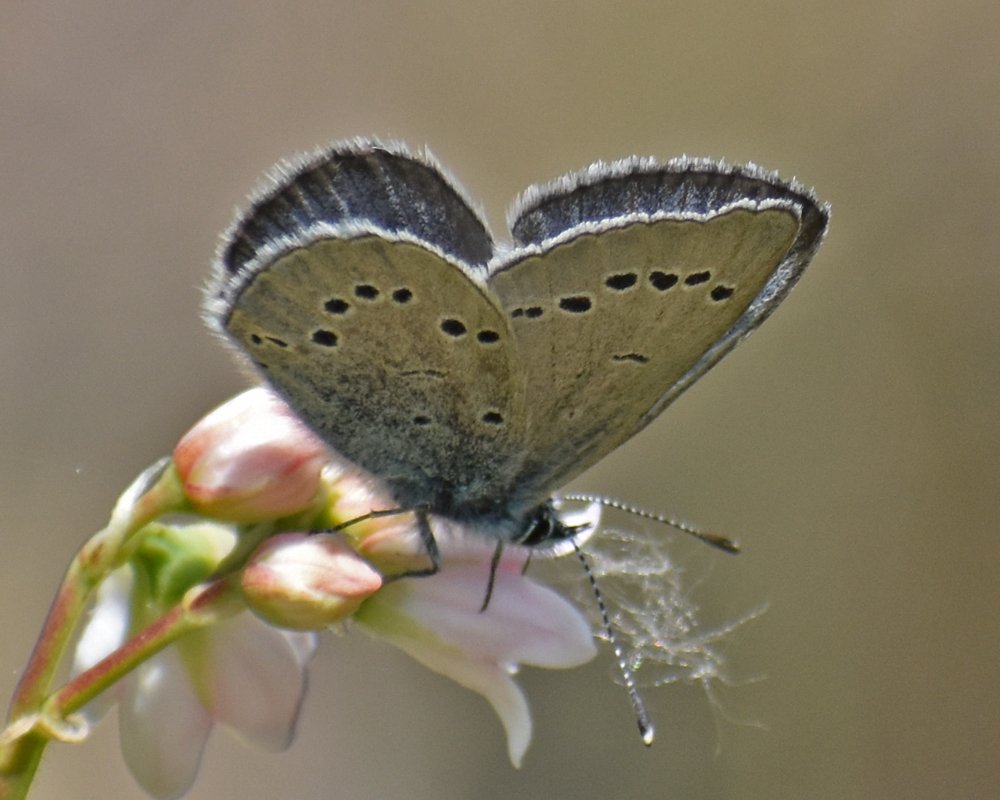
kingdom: Animalia
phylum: Arthropoda
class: Insecta
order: Lepidoptera
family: Lycaenidae
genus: Glaucopsyche
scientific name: Glaucopsyche lygdamus
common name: Silvery Blue
